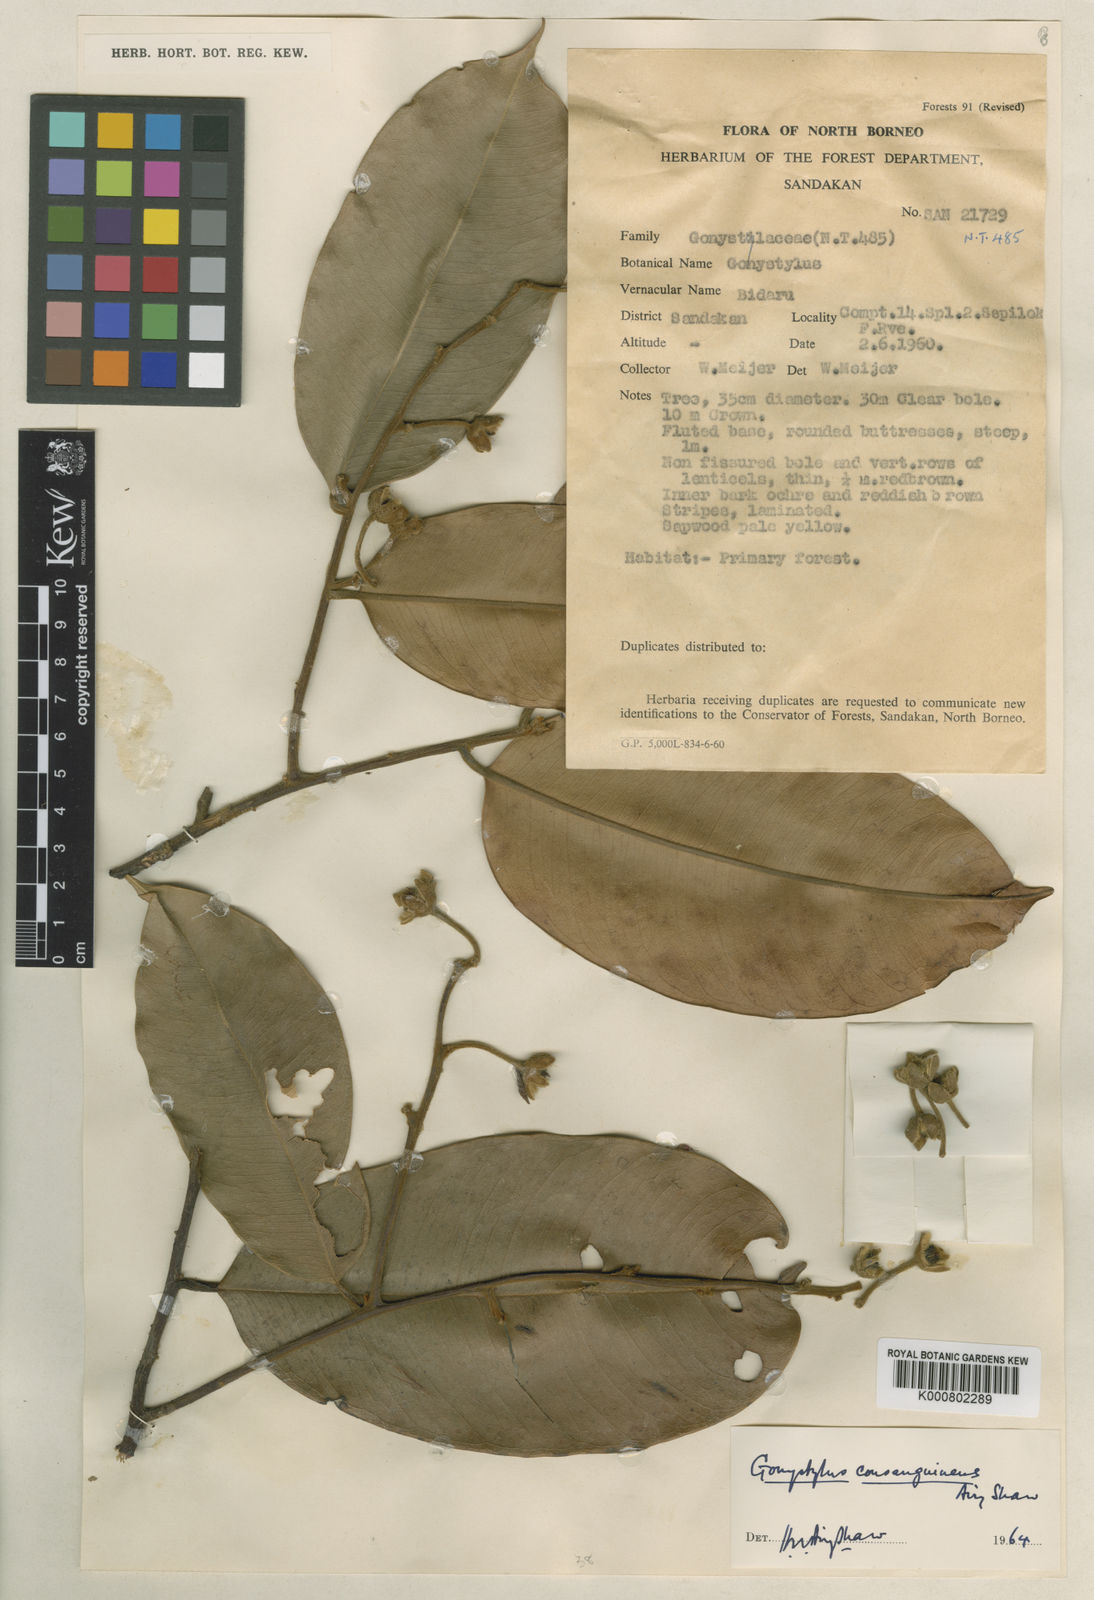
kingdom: Plantae
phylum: Tracheophyta
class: Magnoliopsida
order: Malvales
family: Thymelaeaceae
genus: Gonystylus
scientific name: Gonystylus consanguineus
